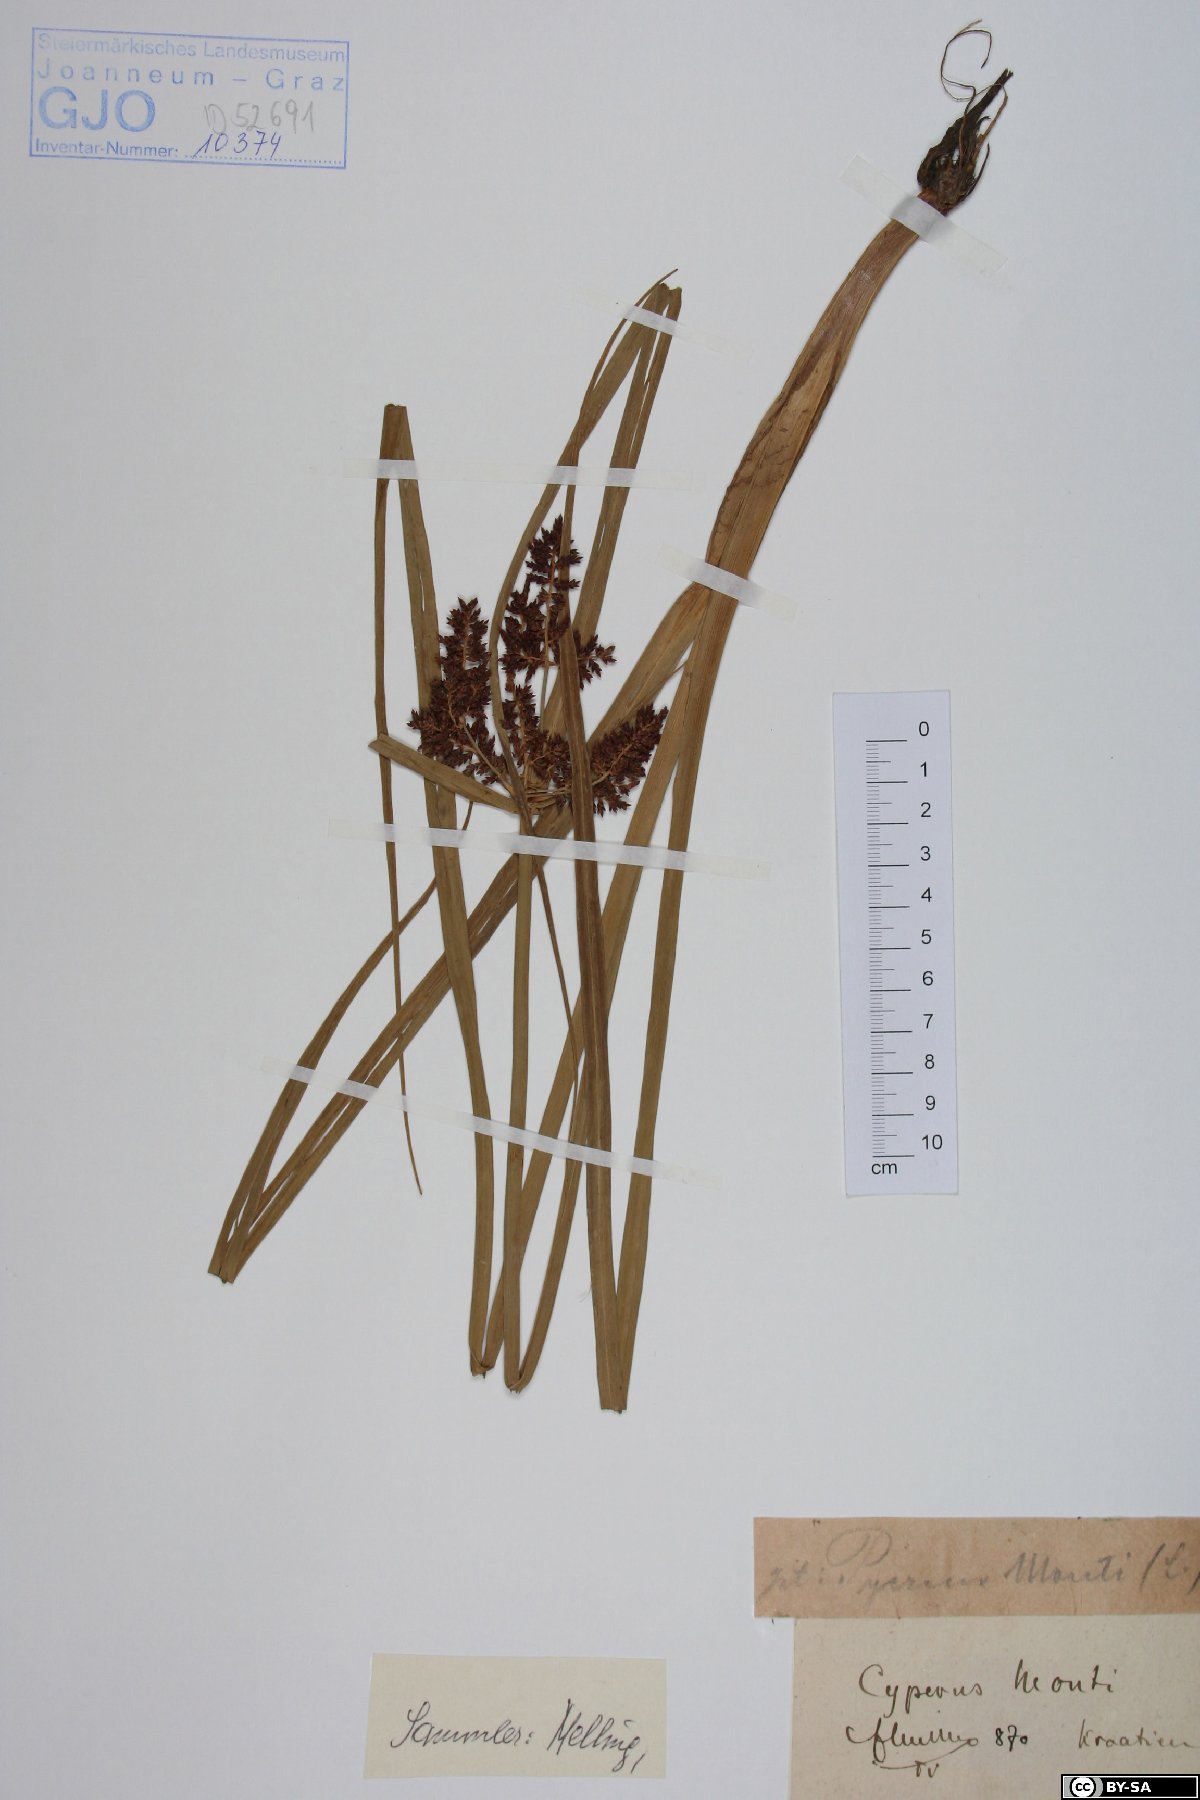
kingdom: Plantae
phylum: Tracheophyta
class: Liliopsida
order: Poales
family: Cyperaceae
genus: Cyperus
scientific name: Cyperus serotinus
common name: Tidalmarsh flatsedge
